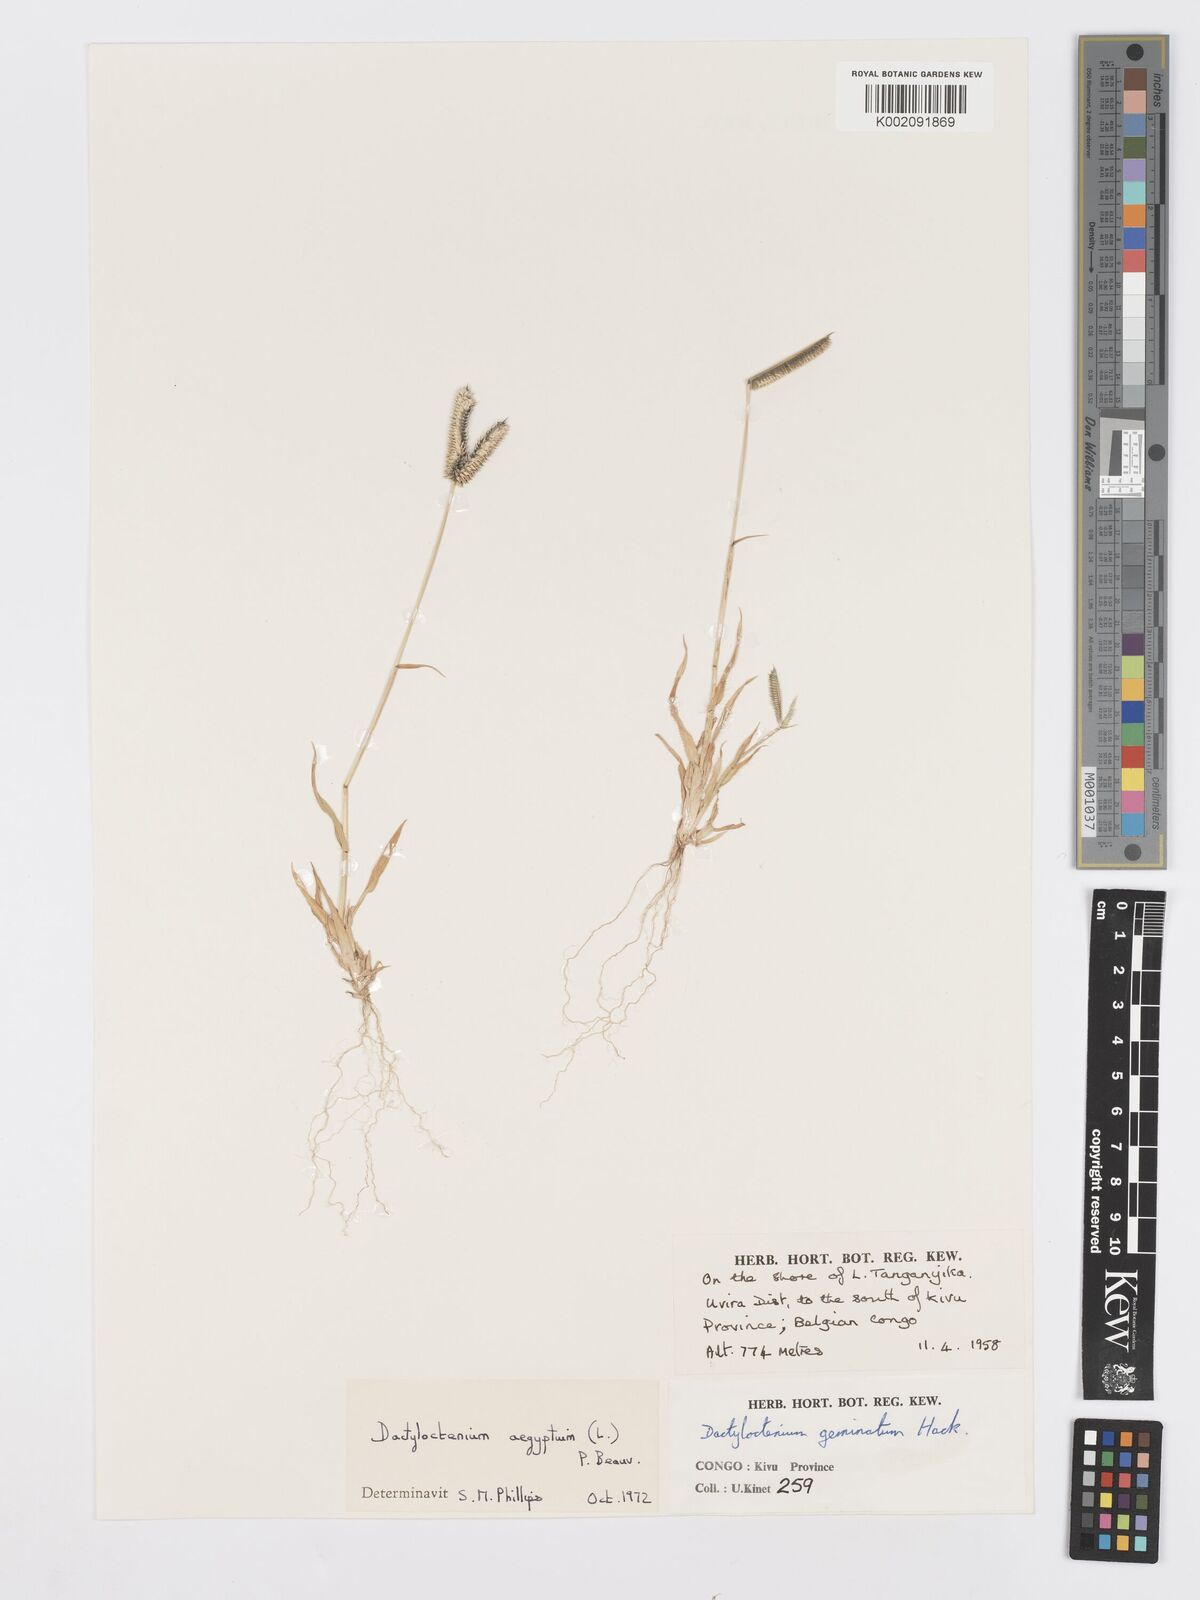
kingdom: Plantae
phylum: Tracheophyta
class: Liliopsida
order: Poales
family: Poaceae
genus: Dactyloctenium
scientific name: Dactyloctenium aegyptium
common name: Egyptian grass
